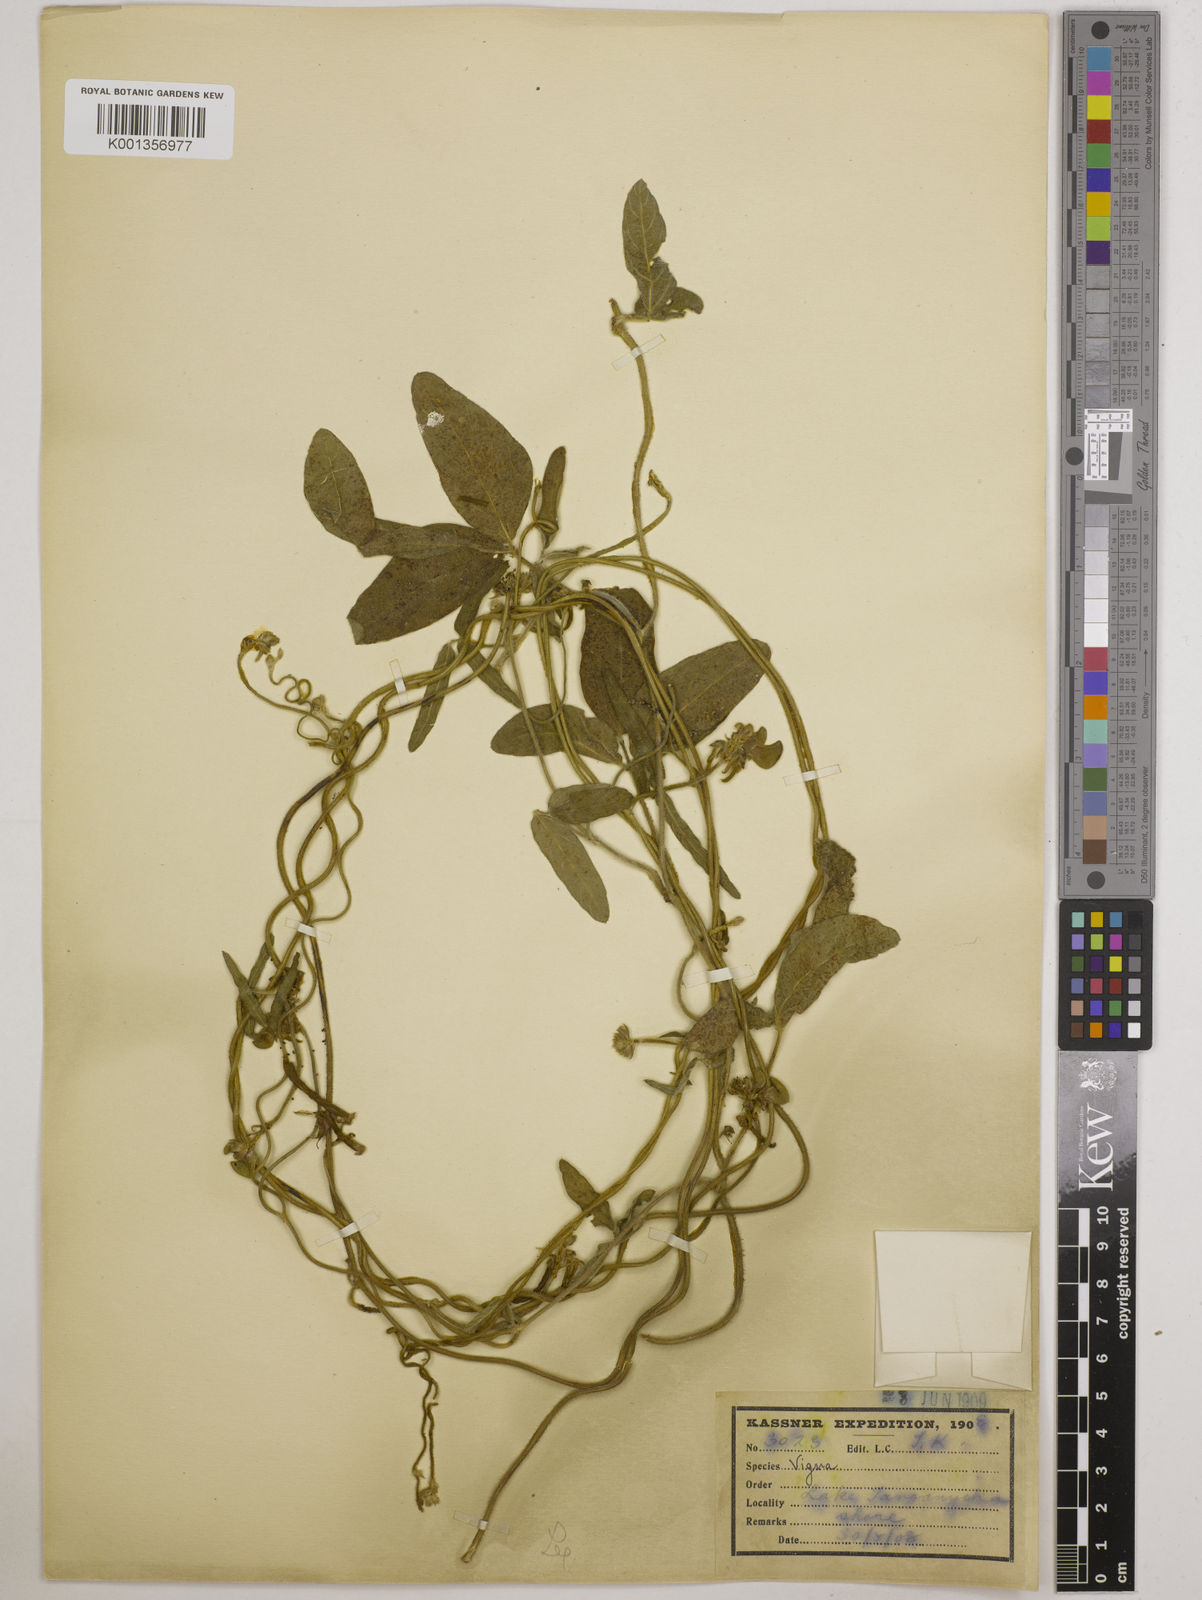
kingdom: Plantae
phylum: Tracheophyta
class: Magnoliopsida
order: Fabales
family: Fabaceae
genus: Vigna
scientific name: Vigna ambacensis
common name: Tsarkiyan zomo
